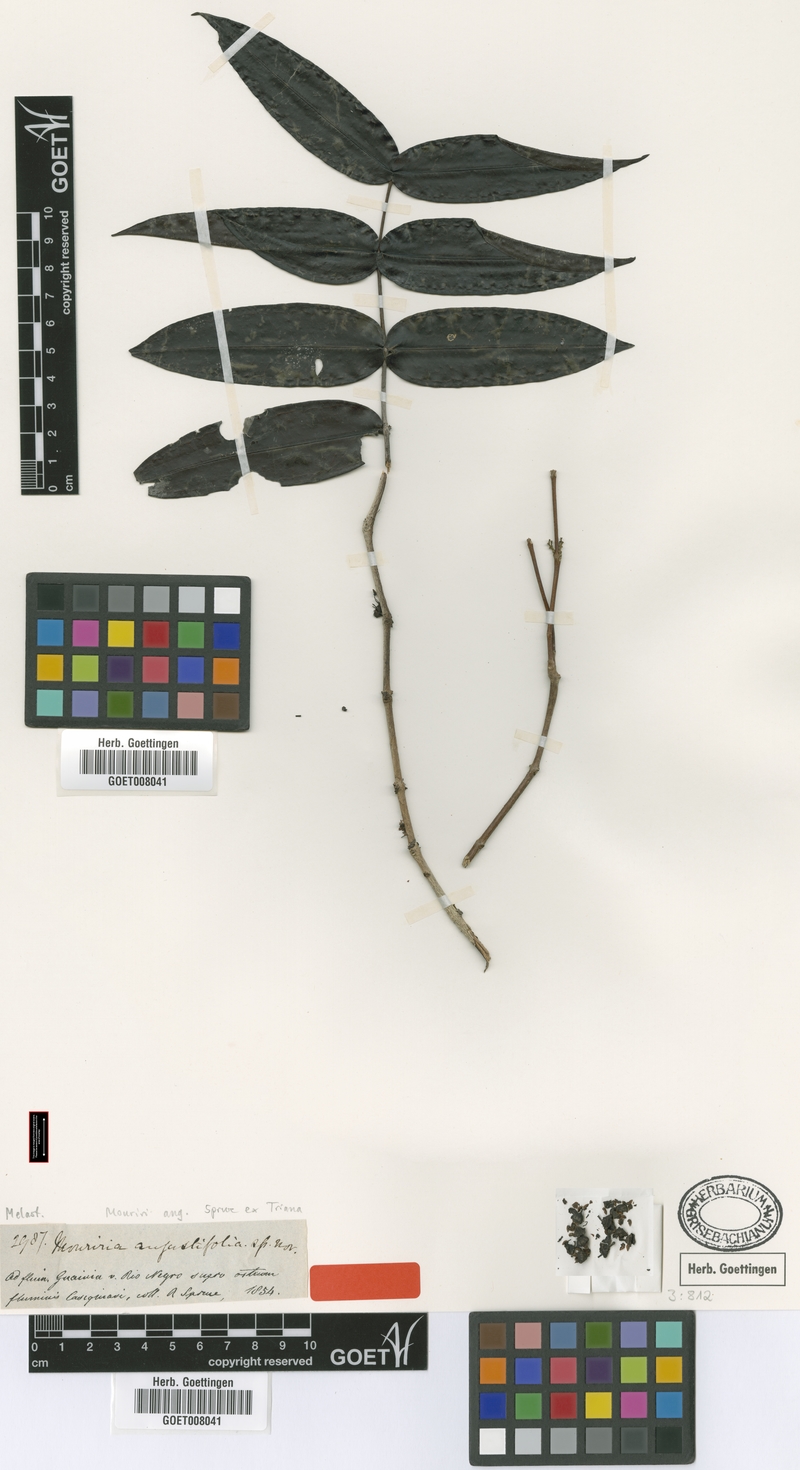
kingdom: Plantae
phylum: Tracheophyta
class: Magnoliopsida
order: Myrtales
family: Melastomataceae
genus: Mouriri
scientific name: Mouriri angustifolia
